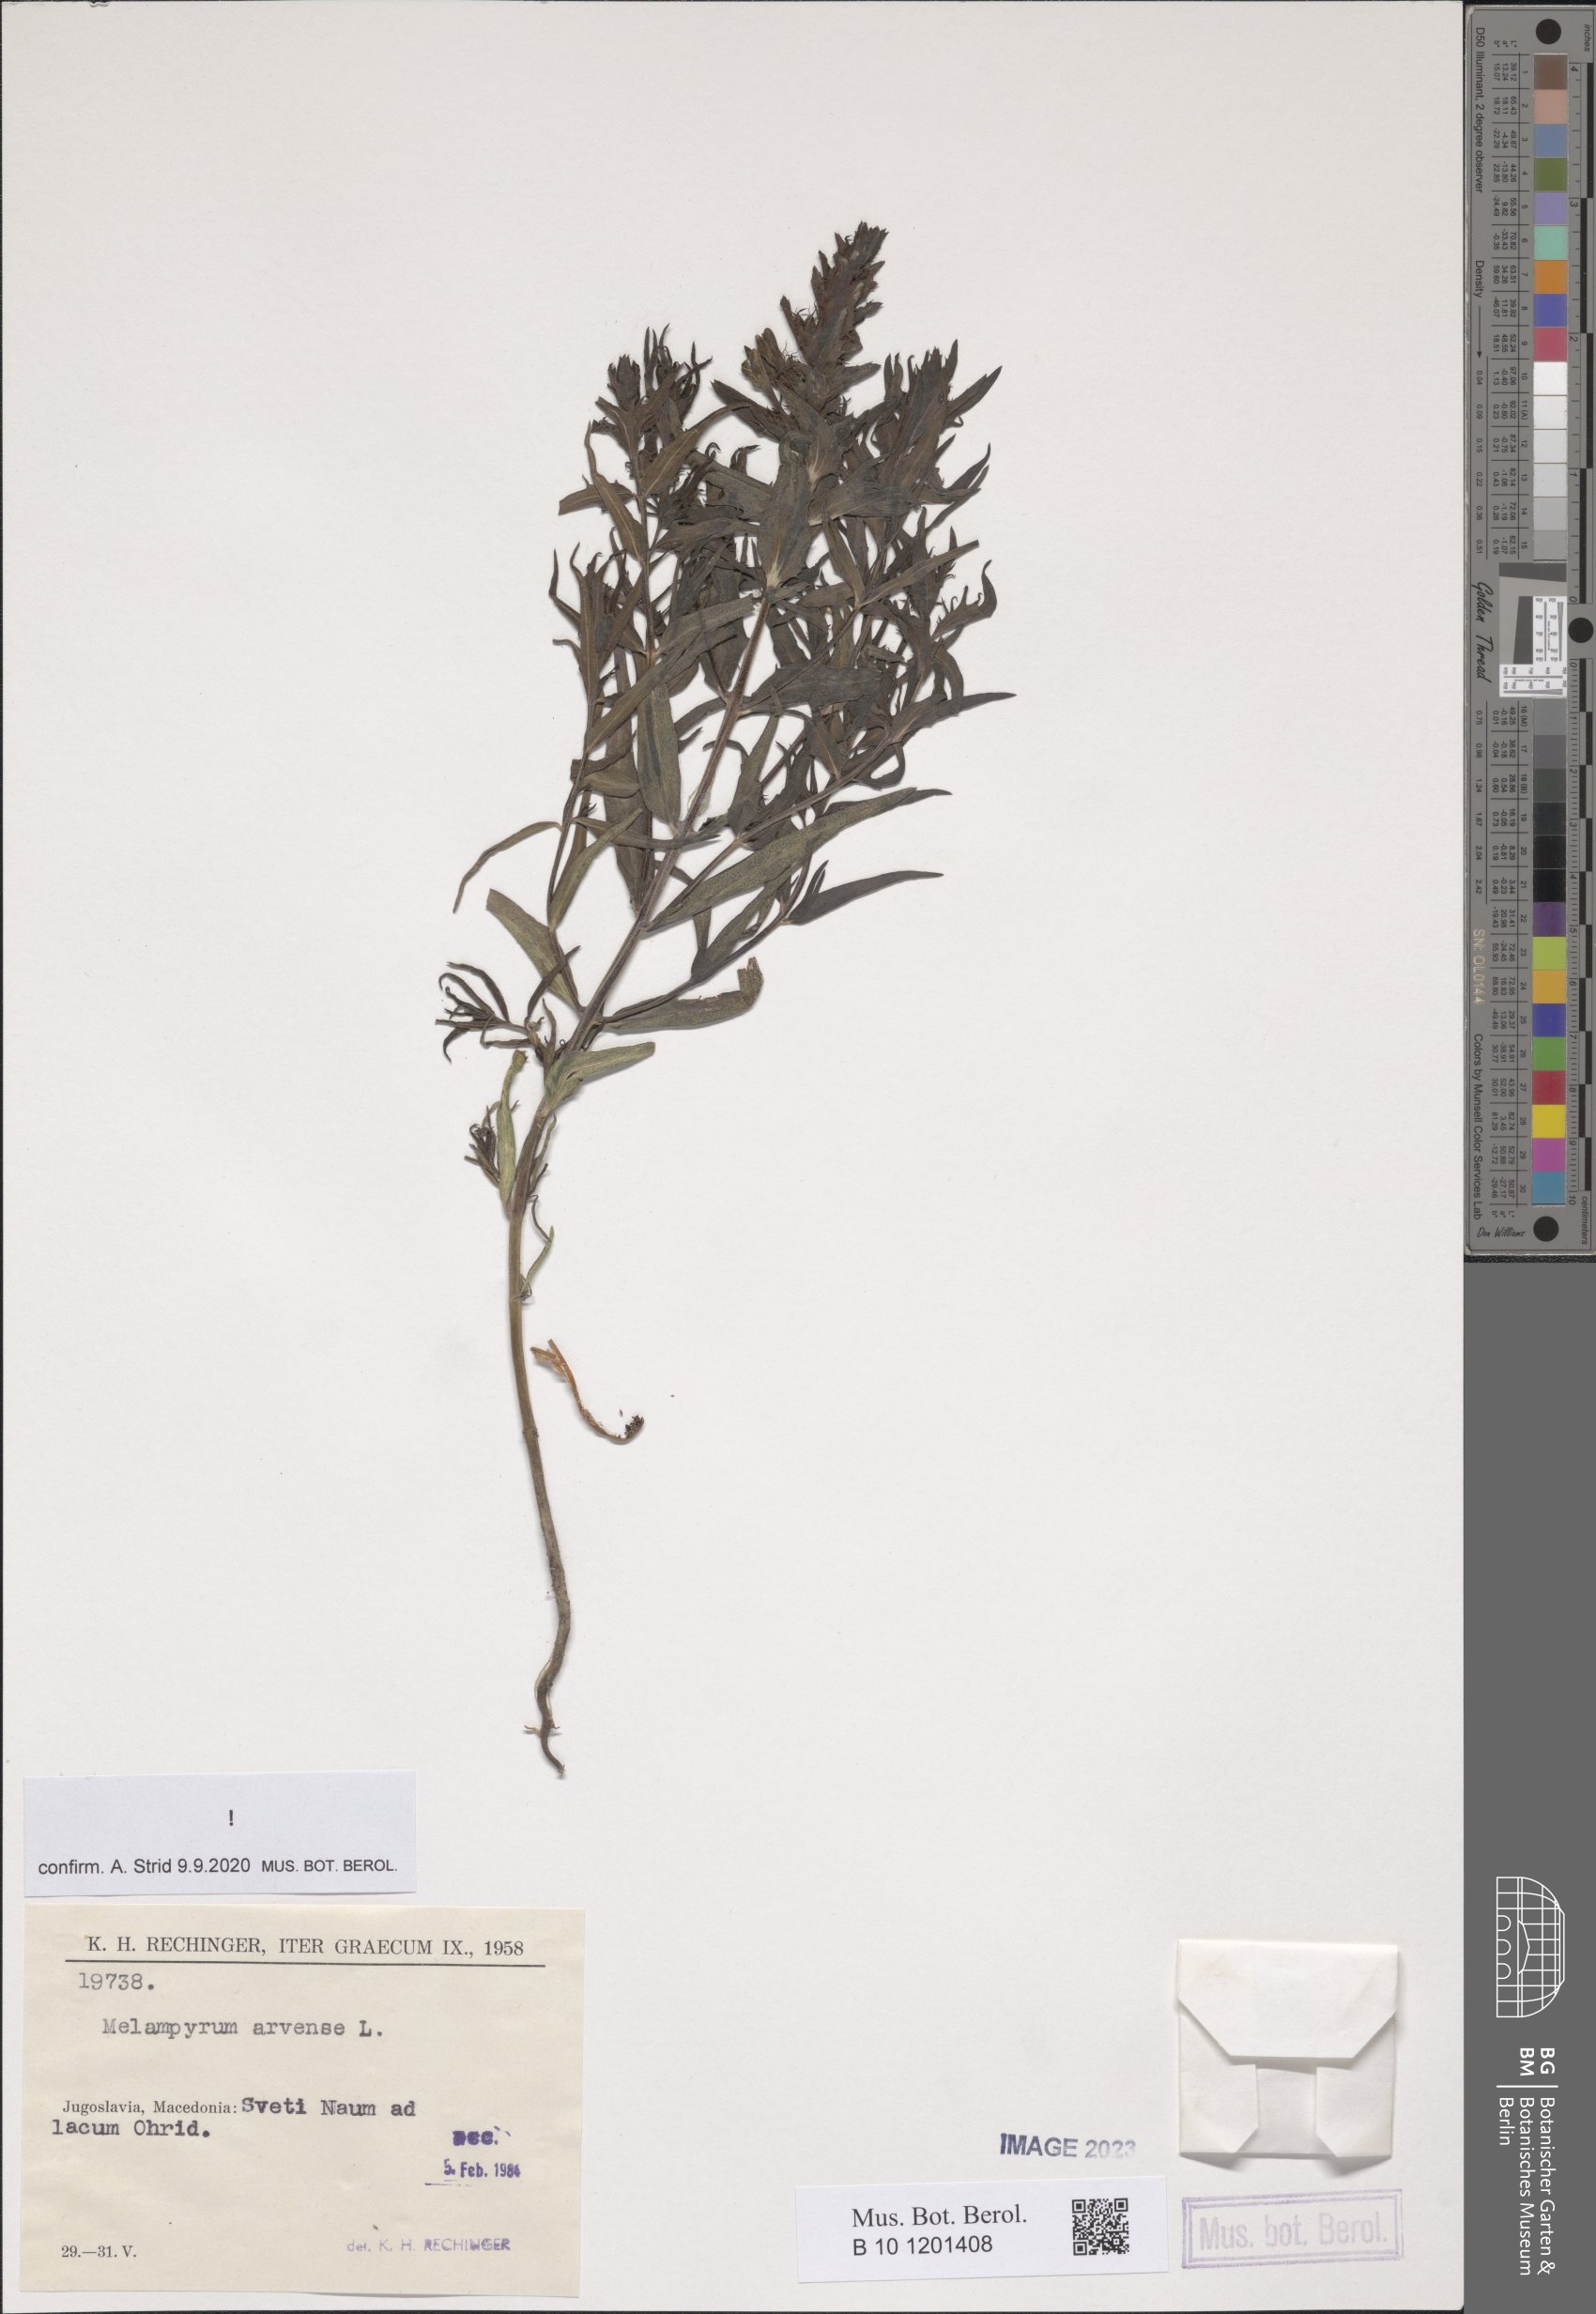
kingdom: Plantae
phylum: Tracheophyta
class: Magnoliopsida
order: Lamiales
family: Orobanchaceae
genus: Melampyrum
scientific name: Melampyrum arvense
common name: Field cow-wheat
